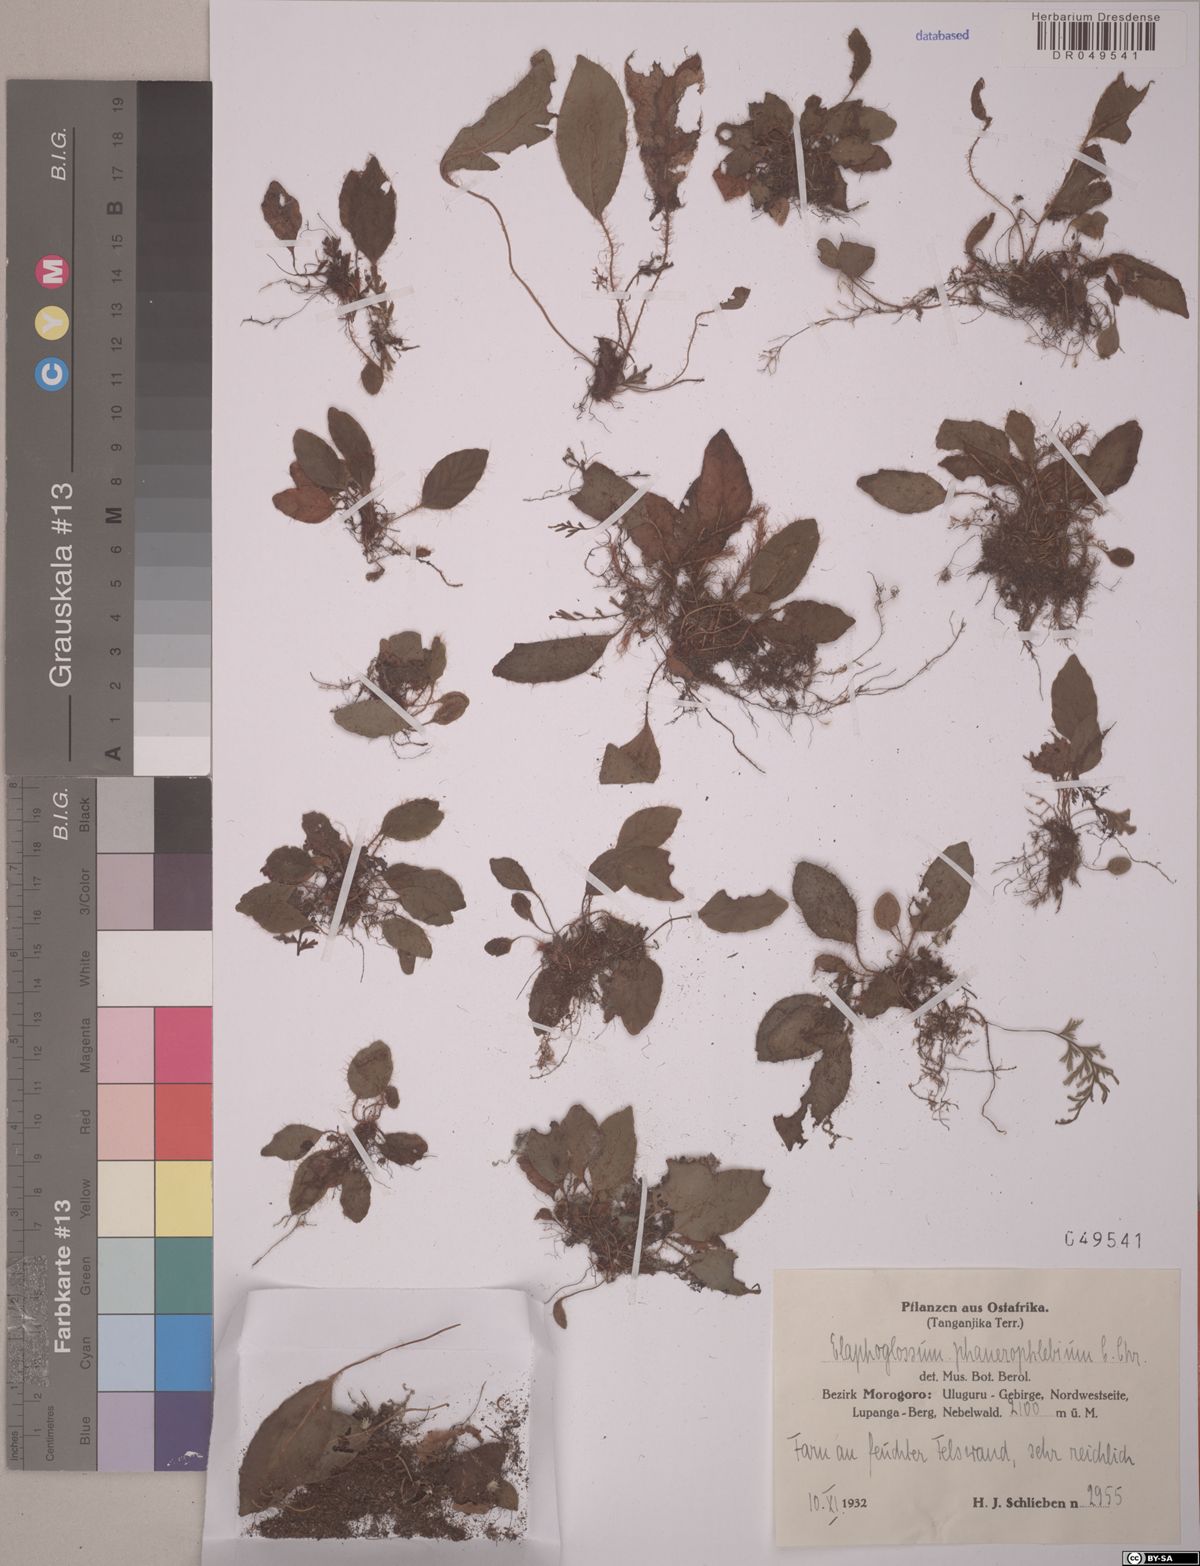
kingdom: Plantae
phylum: Tracheophyta
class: Polypodiopsida
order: Polypodiales
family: Dryopteridaceae
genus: Elaphoglossum
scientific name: Elaphoglossum phanerophlebium
